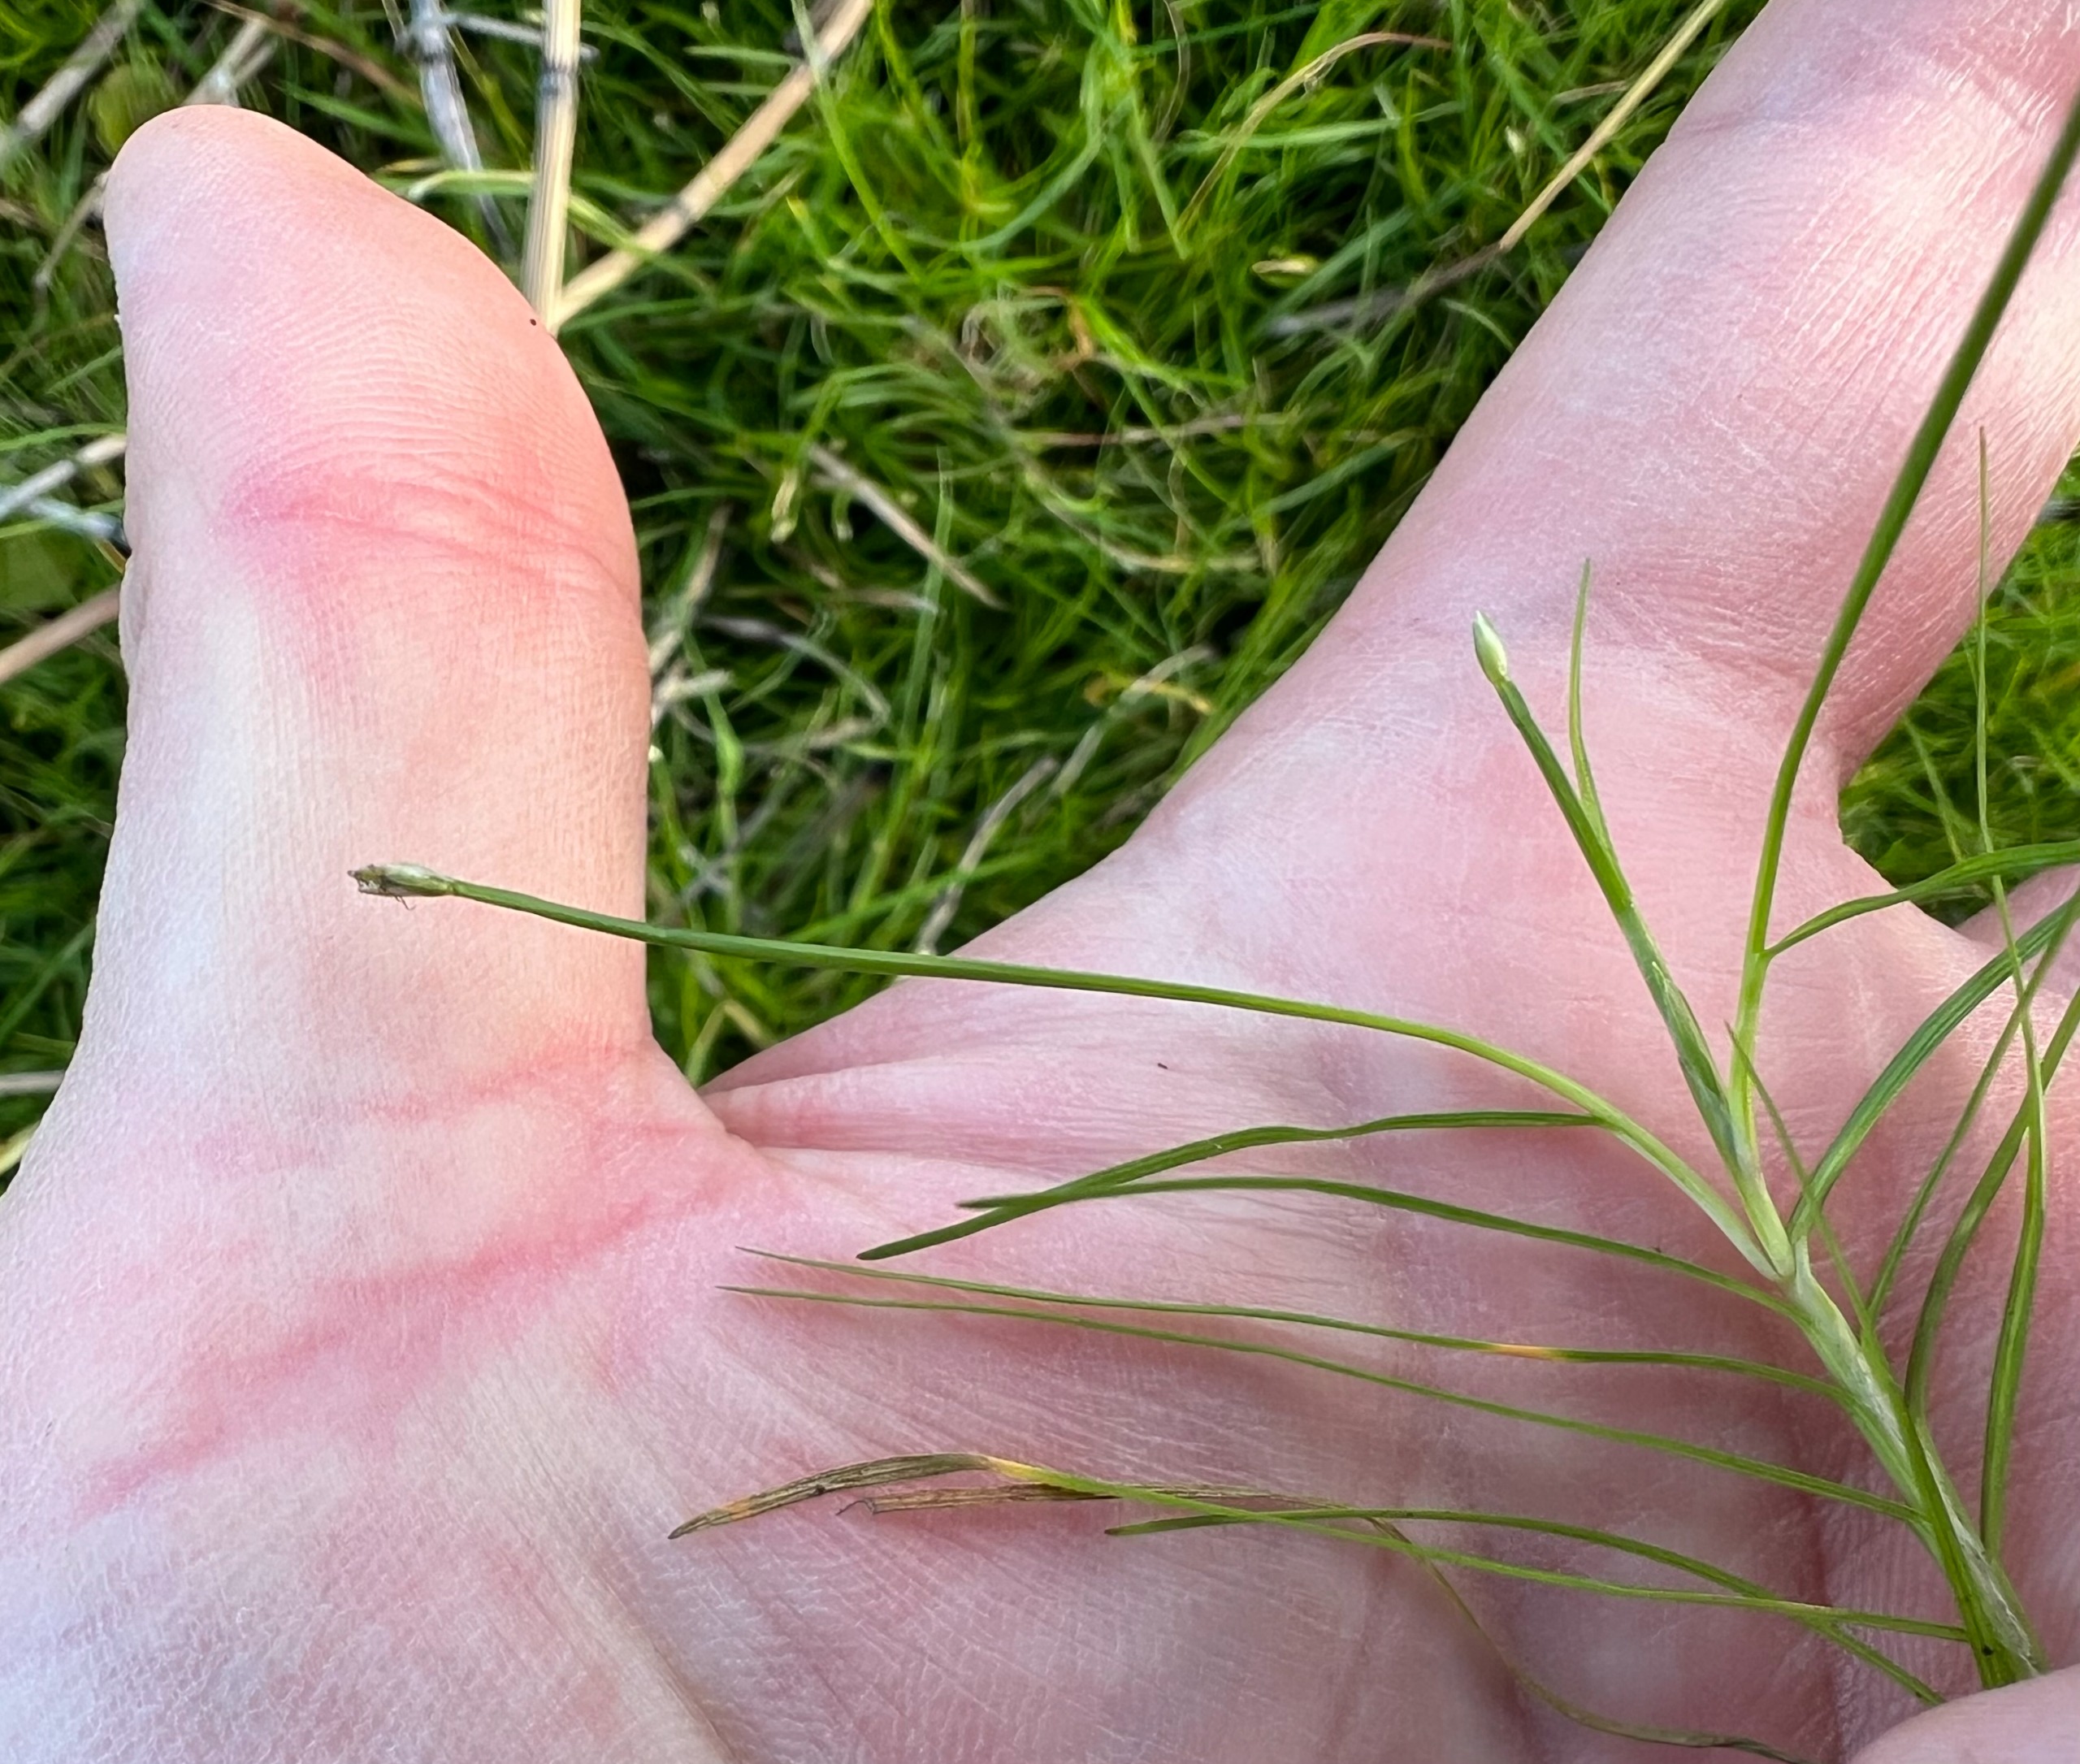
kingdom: Plantae
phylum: Tracheophyta
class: Liliopsida
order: Poales
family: Cyperaceae
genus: Isolepis
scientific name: Isolepis fluitans
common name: Flydende kogleaks
